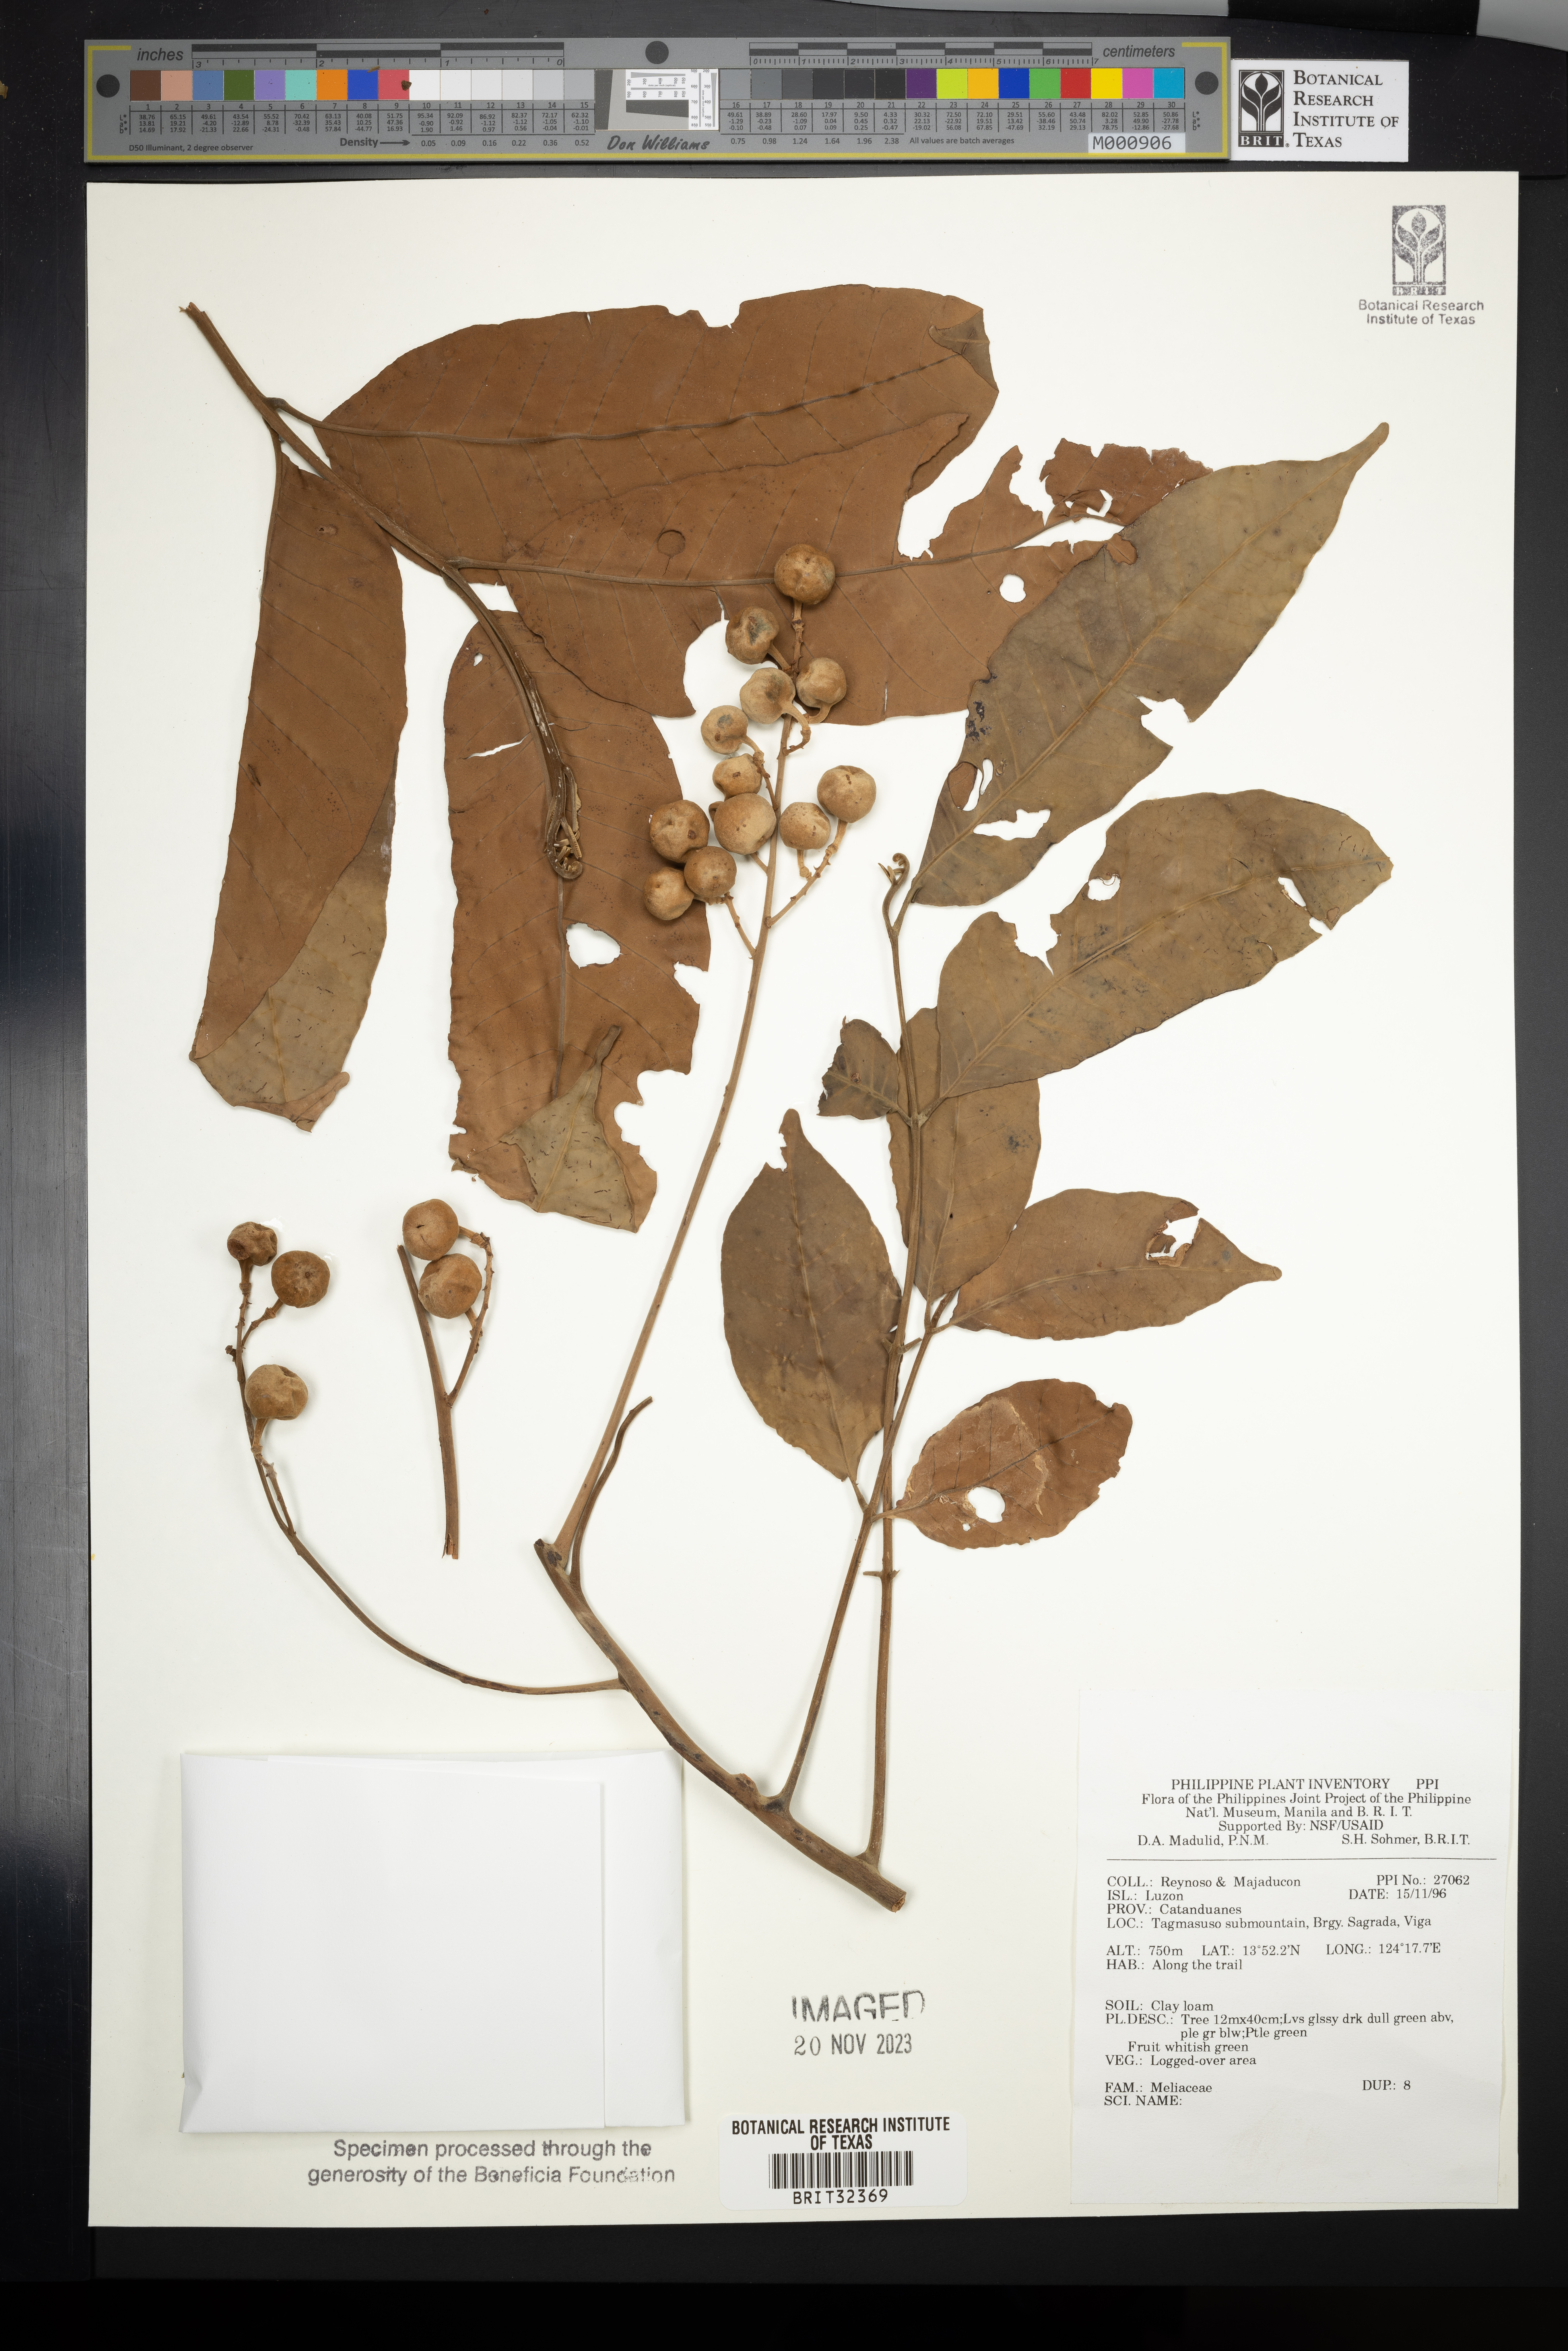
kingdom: Plantae
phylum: Tracheophyta
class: Magnoliopsida
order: Sapindales
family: Meliaceae
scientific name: Meliaceae
